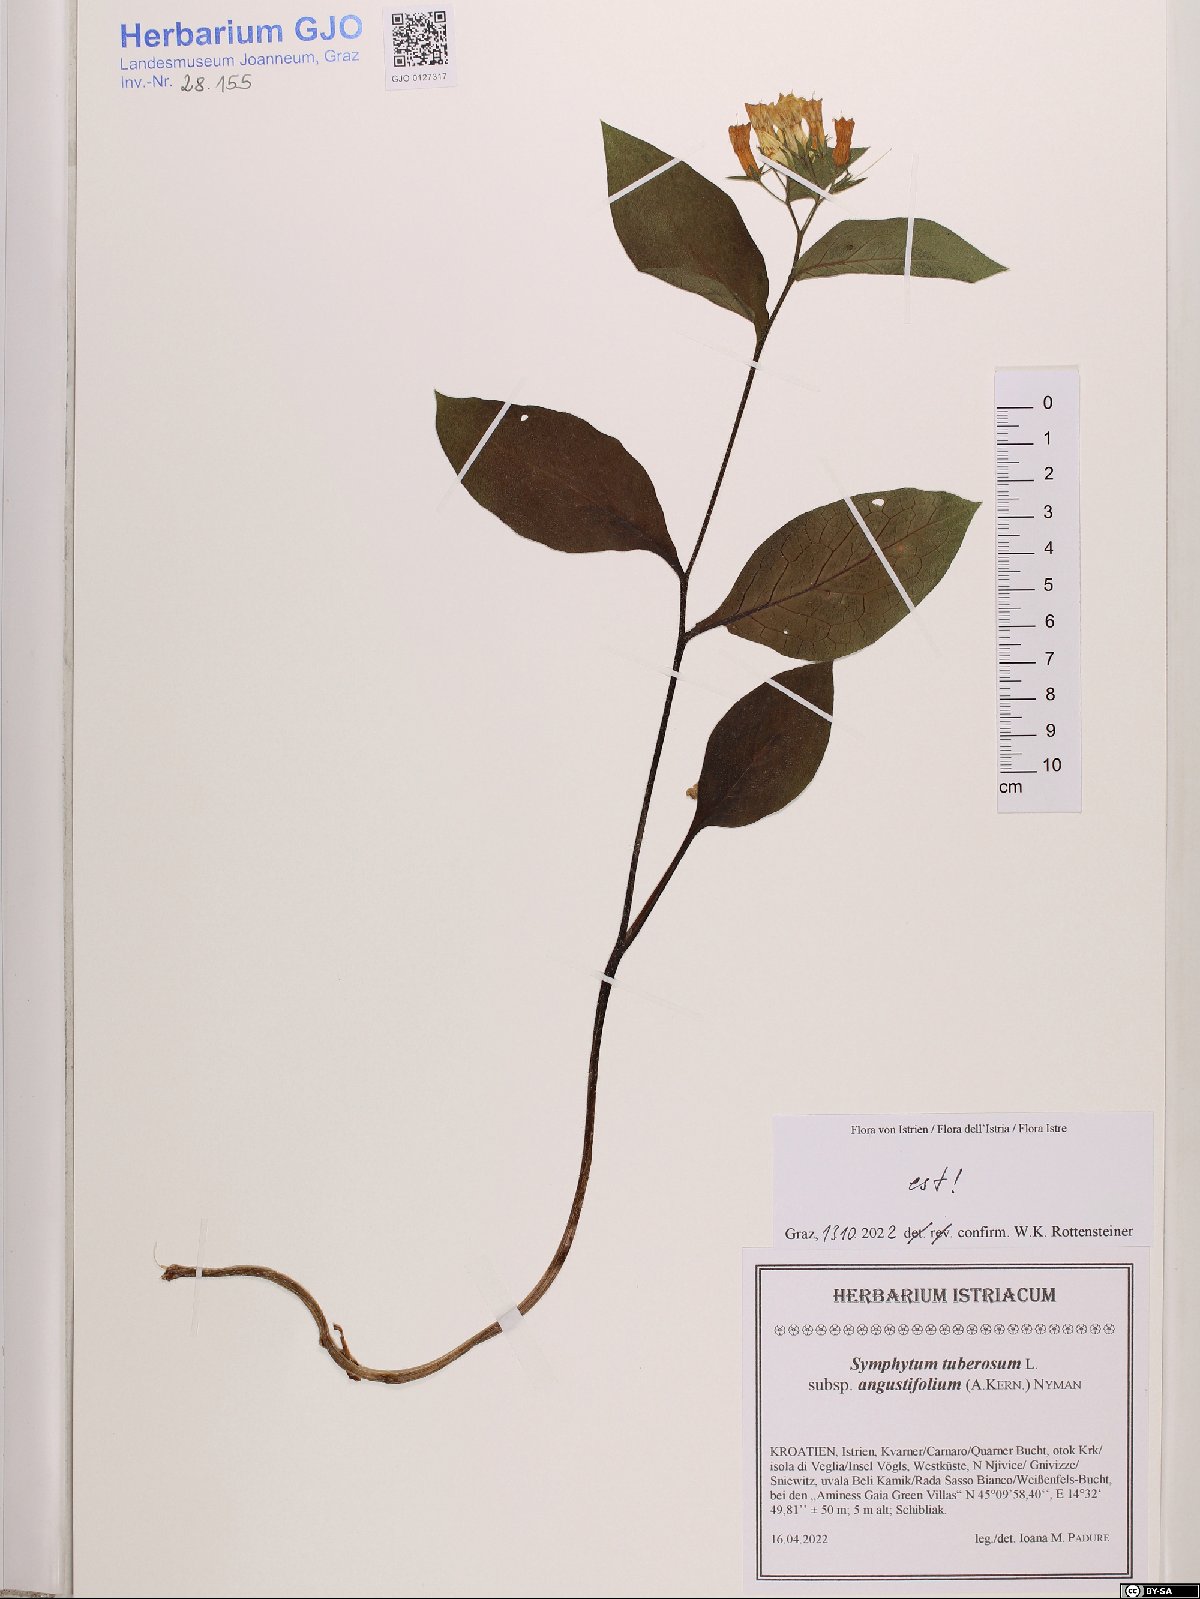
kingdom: Plantae
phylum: Tracheophyta
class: Magnoliopsida
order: Boraginales
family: Boraginaceae
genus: Symphytum
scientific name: Symphytum tuberosum
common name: Tuberous comfrey
